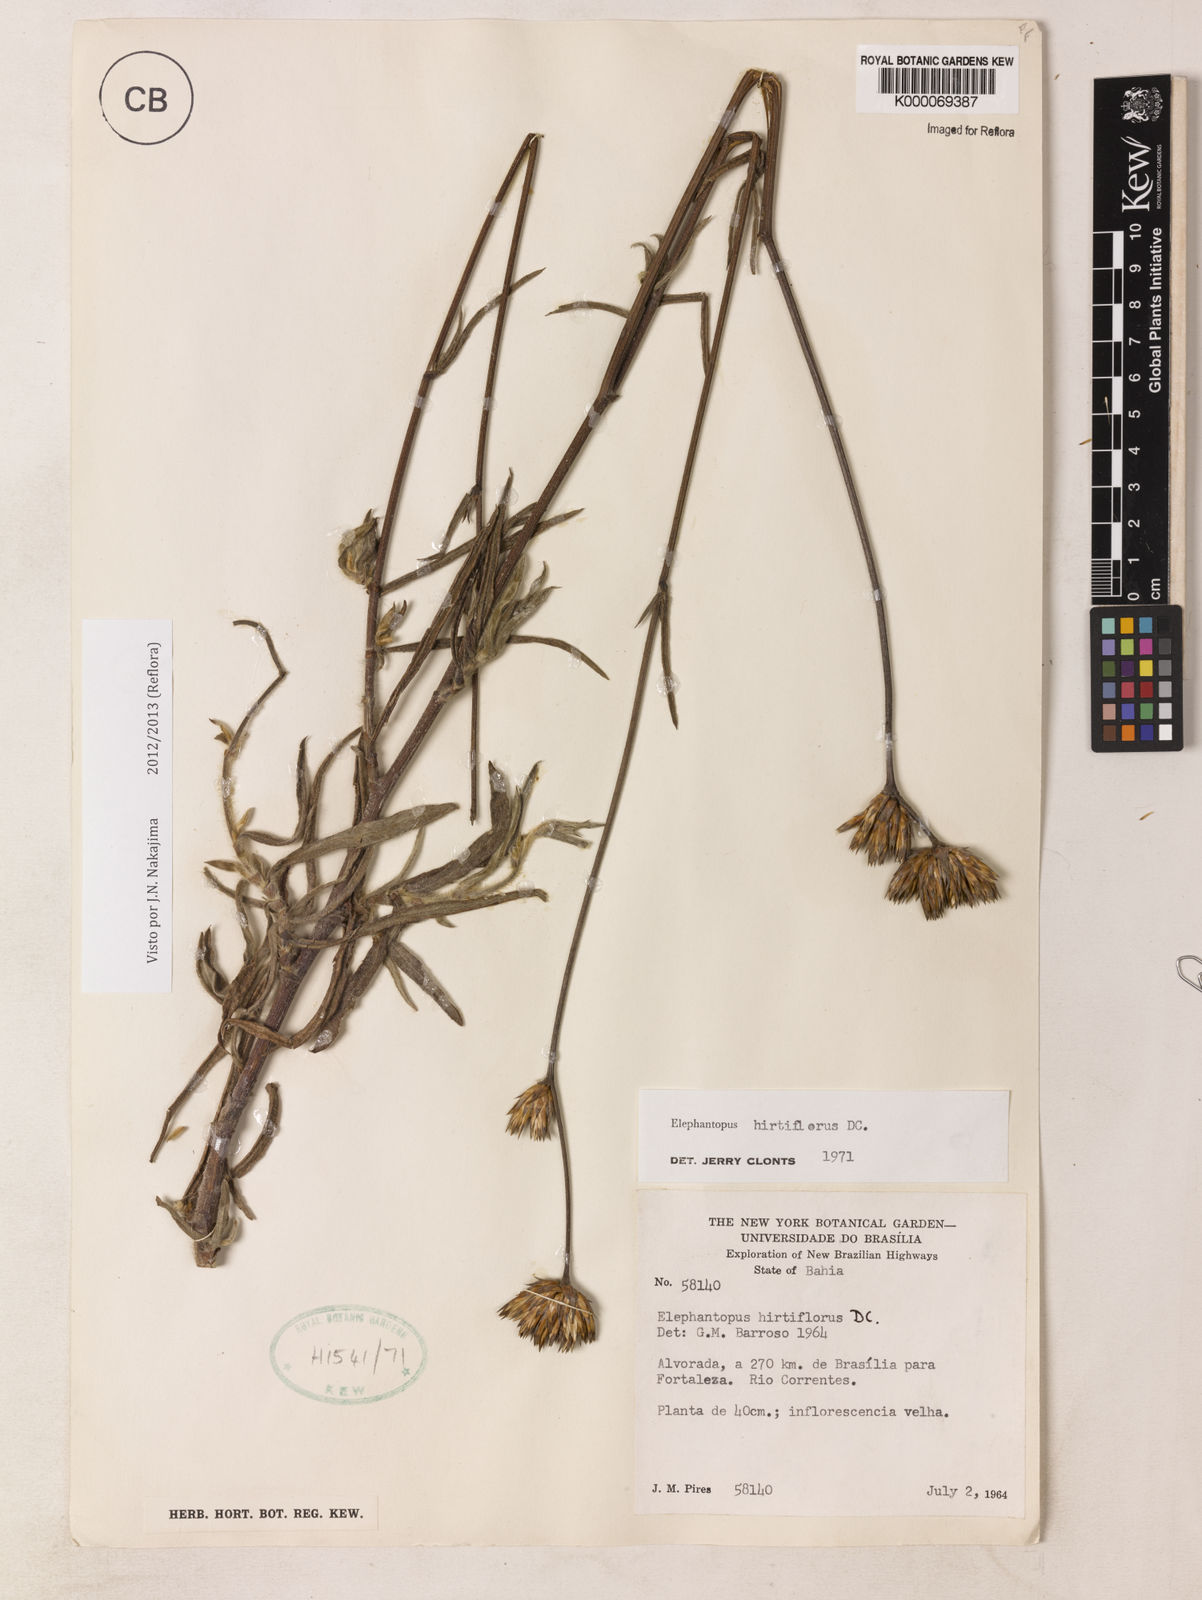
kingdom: Plantae
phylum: Tracheophyta
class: Magnoliopsida
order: Asterales
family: Asteraceae
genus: Elephantopus
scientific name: Elephantopus hirtiflorus
